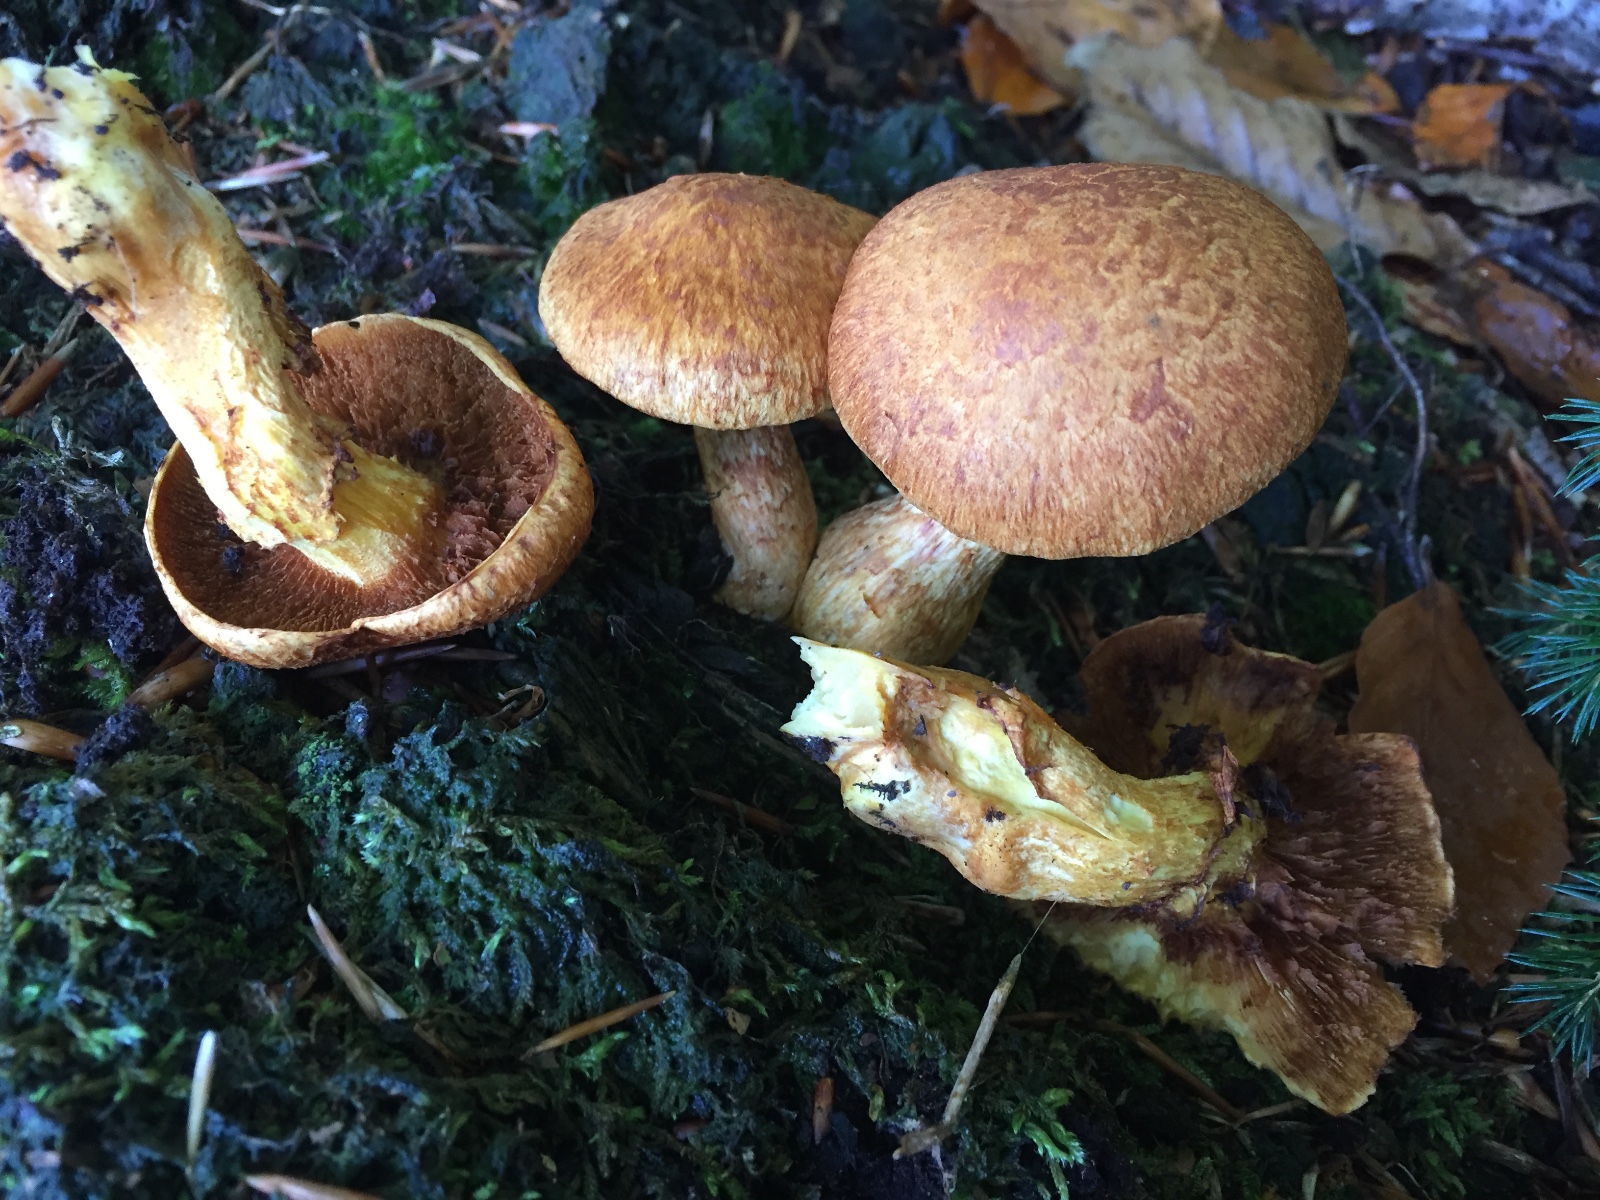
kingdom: Fungi
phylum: Basidiomycota
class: Agaricomycetes
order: Agaricales
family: Hymenogastraceae
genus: Gymnopilus
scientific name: Gymnopilus spectabilis
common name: fibret flammehat
